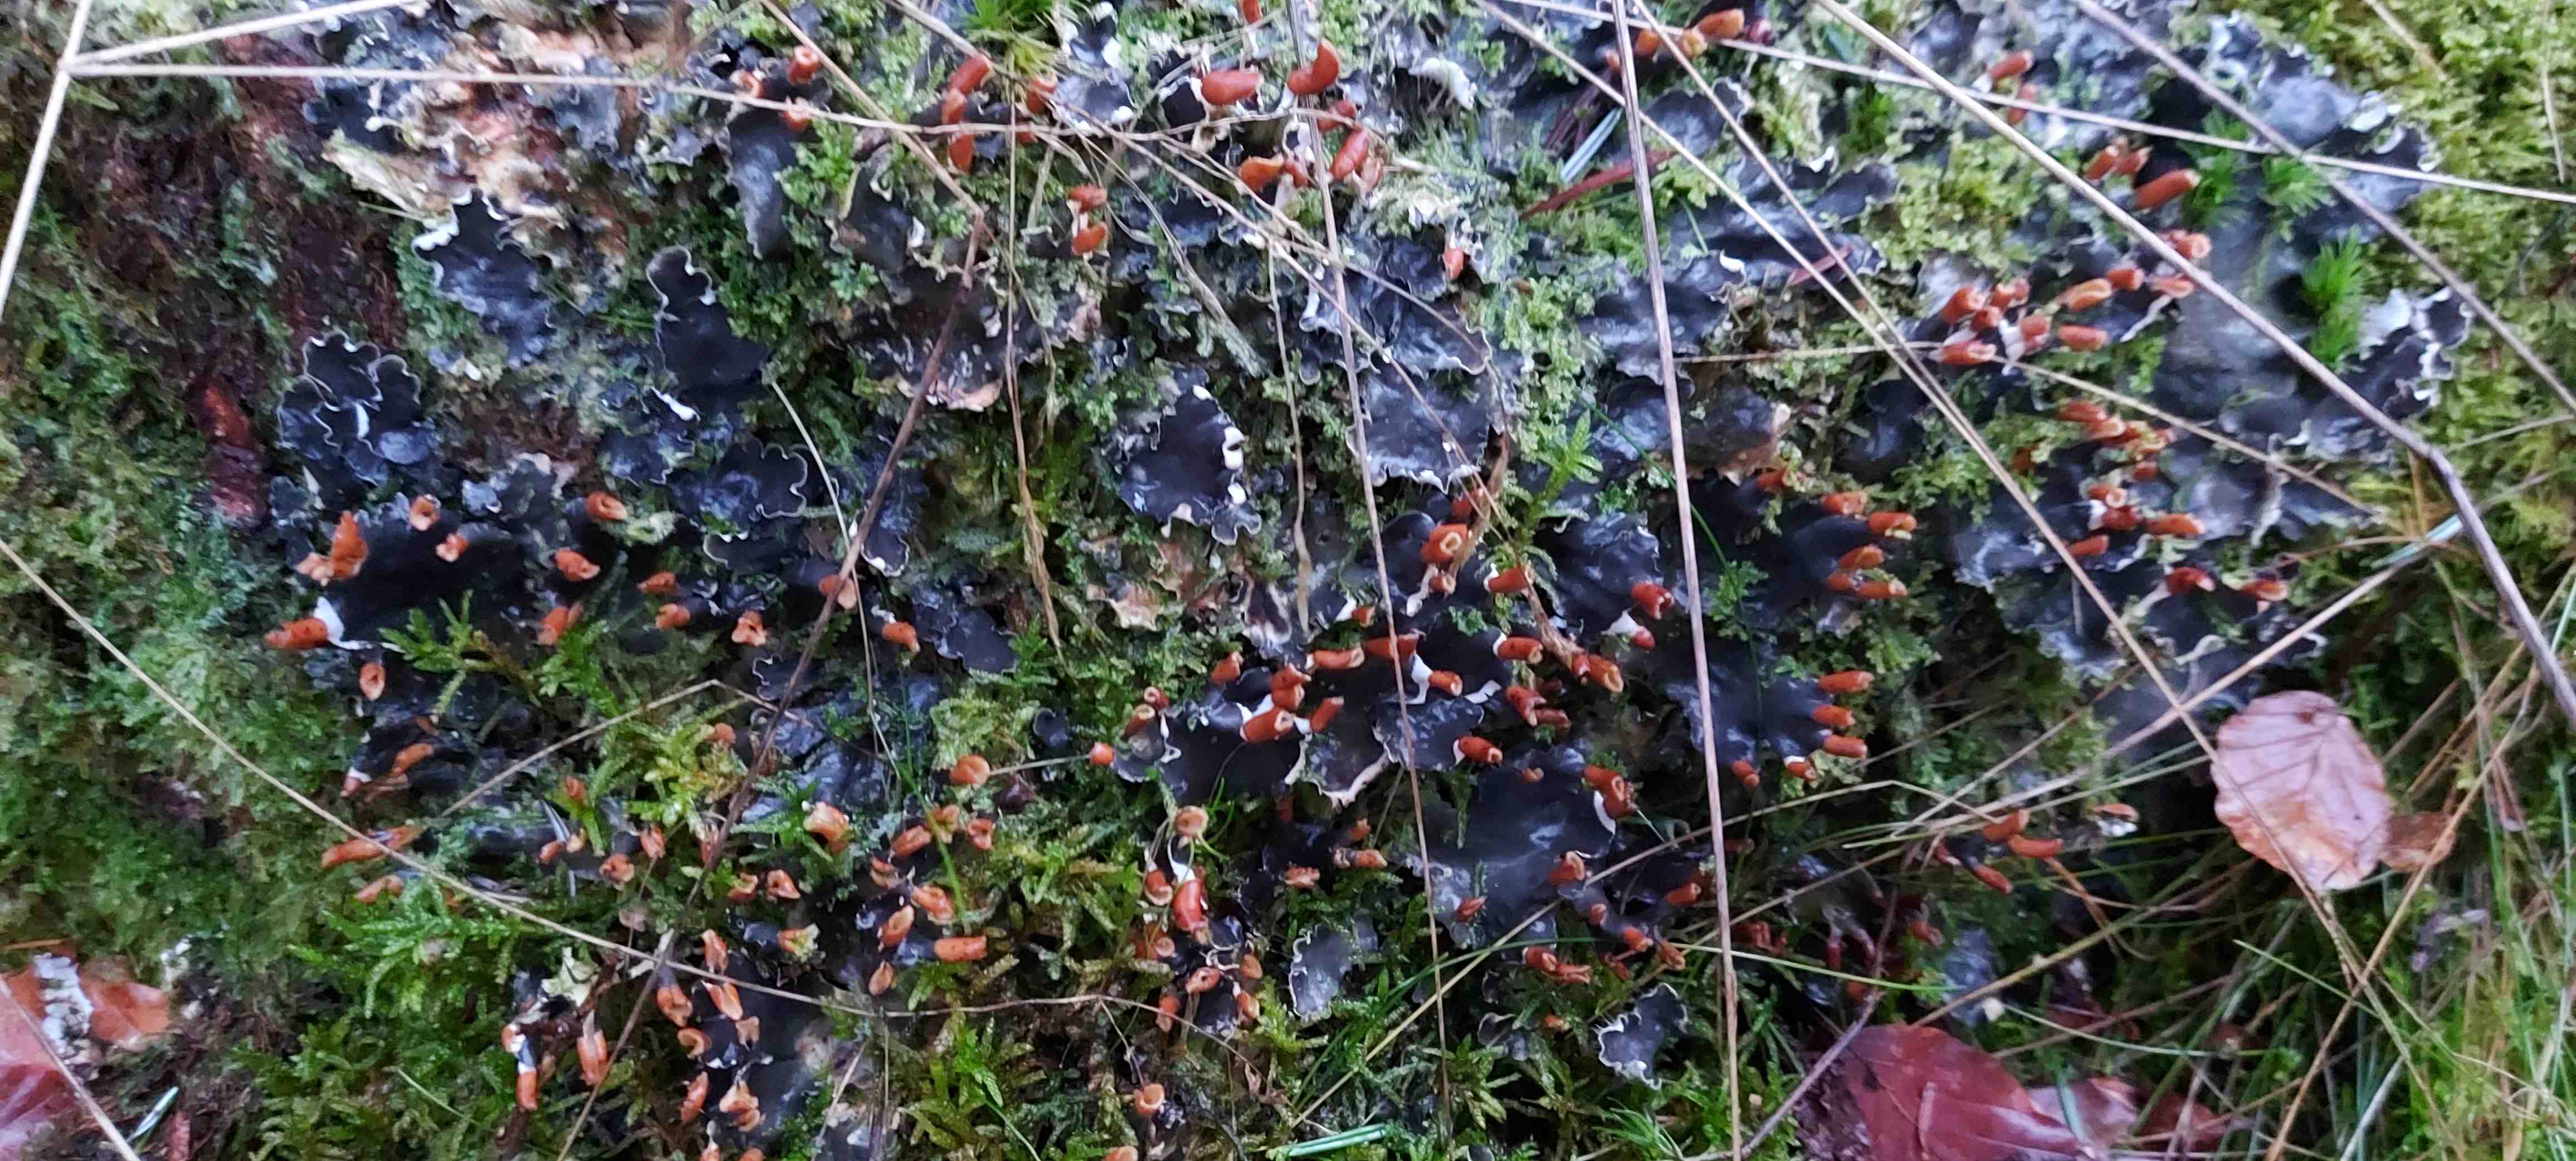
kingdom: Fungi
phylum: Ascomycota
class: Lecanoromycetes
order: Peltigerales
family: Peltigeraceae
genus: Peltigera
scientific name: Peltigera hymenina
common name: hinde-skjoldlav
